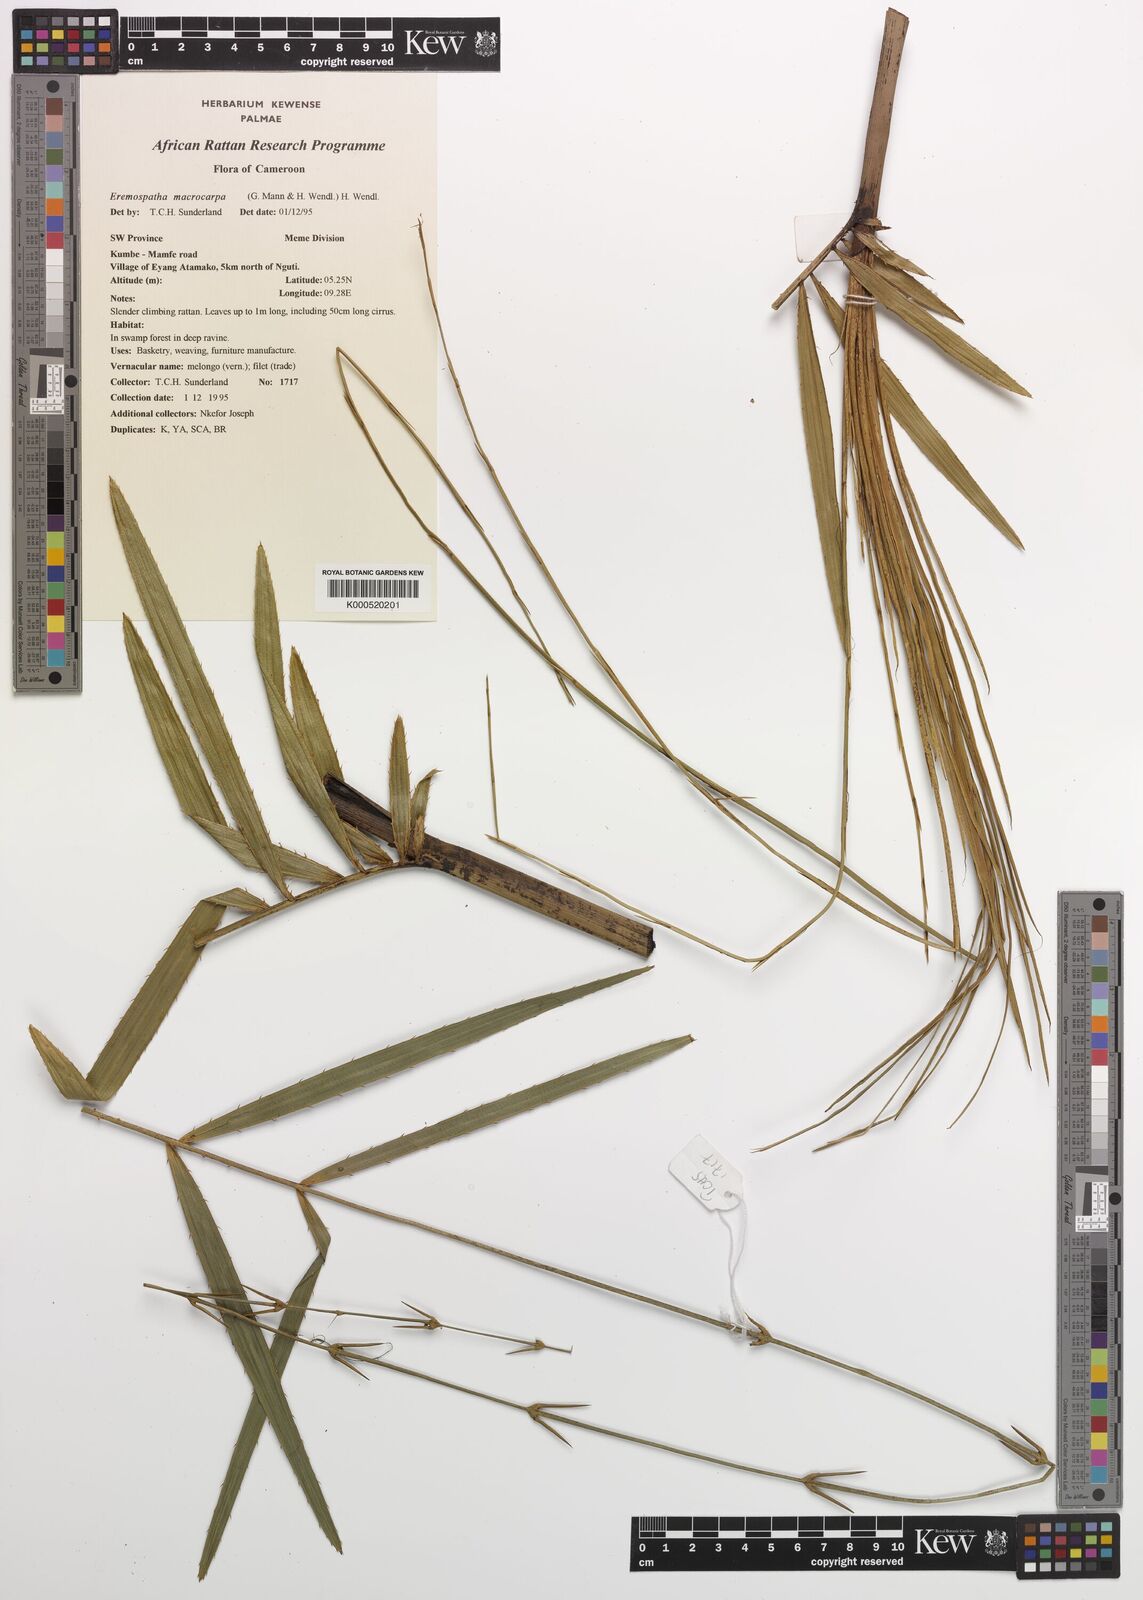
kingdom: Plantae
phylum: Tracheophyta
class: Liliopsida
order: Arecales
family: Arecaceae
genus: Eremospatha
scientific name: Eremospatha
